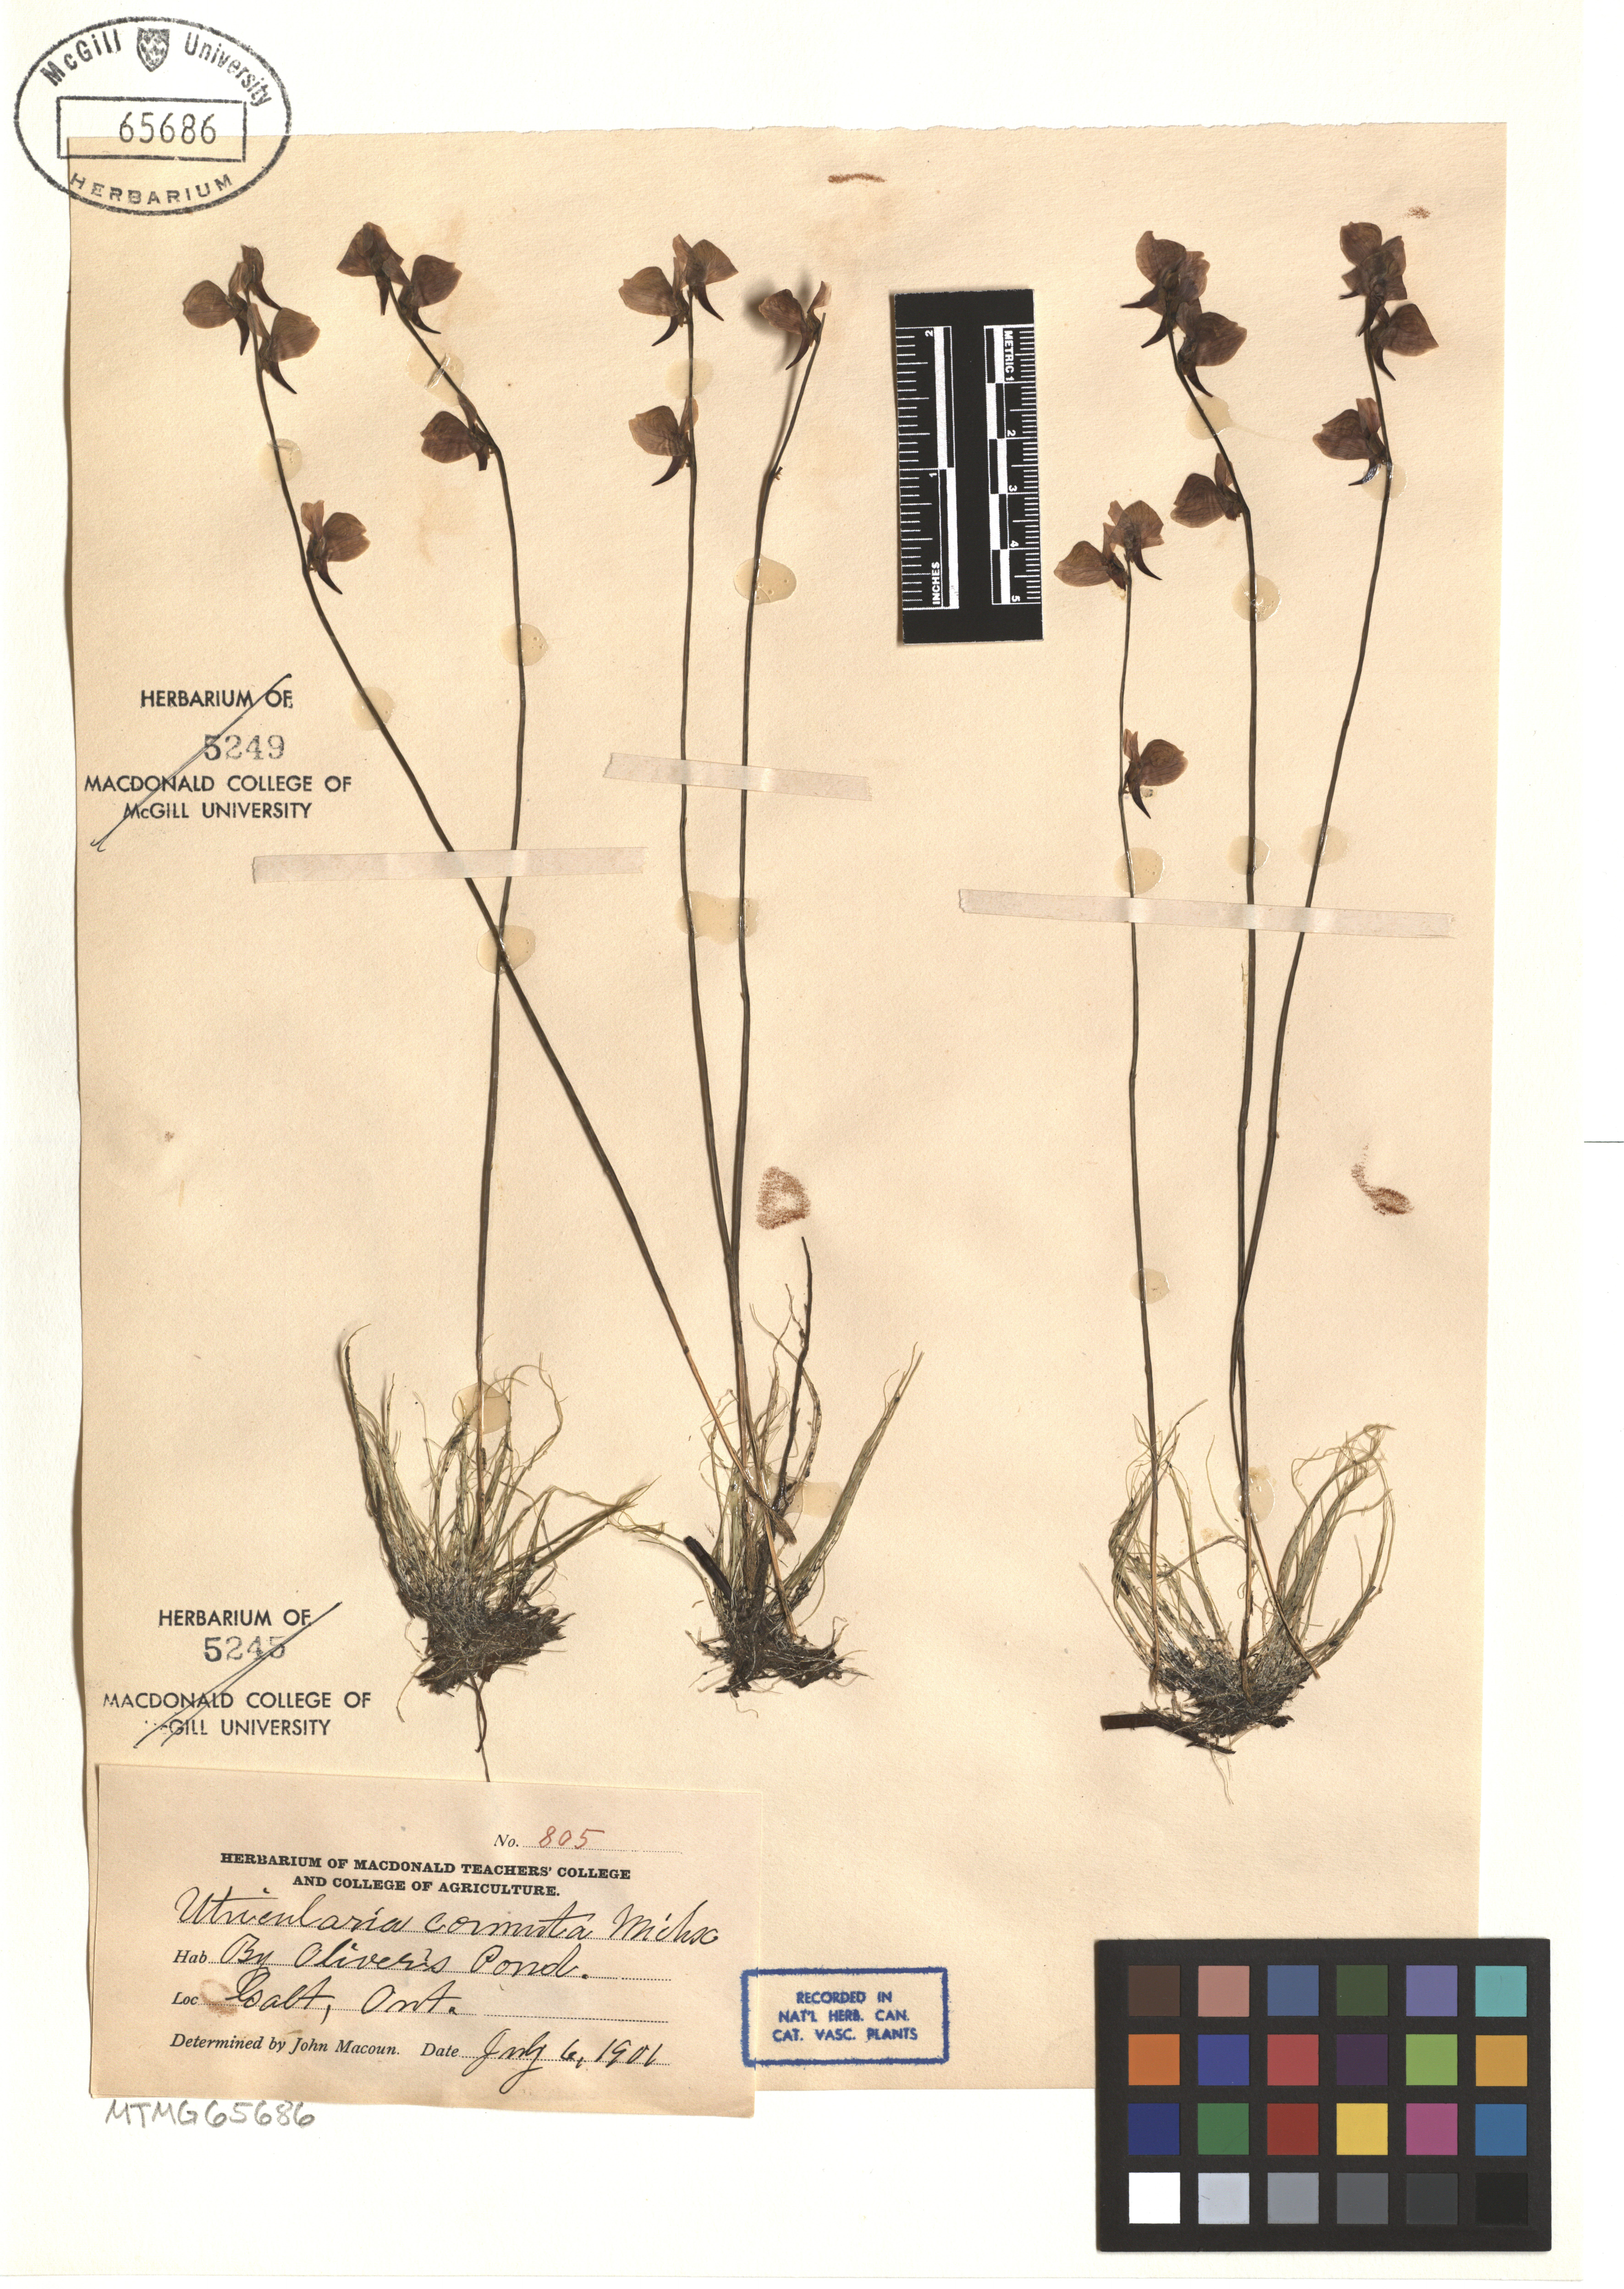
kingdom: Plantae
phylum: Tracheophyta
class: Magnoliopsida
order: Lamiales
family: Lentibulariaceae
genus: Utricularia
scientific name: Utricularia cornuta
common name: Horned bladderwort
